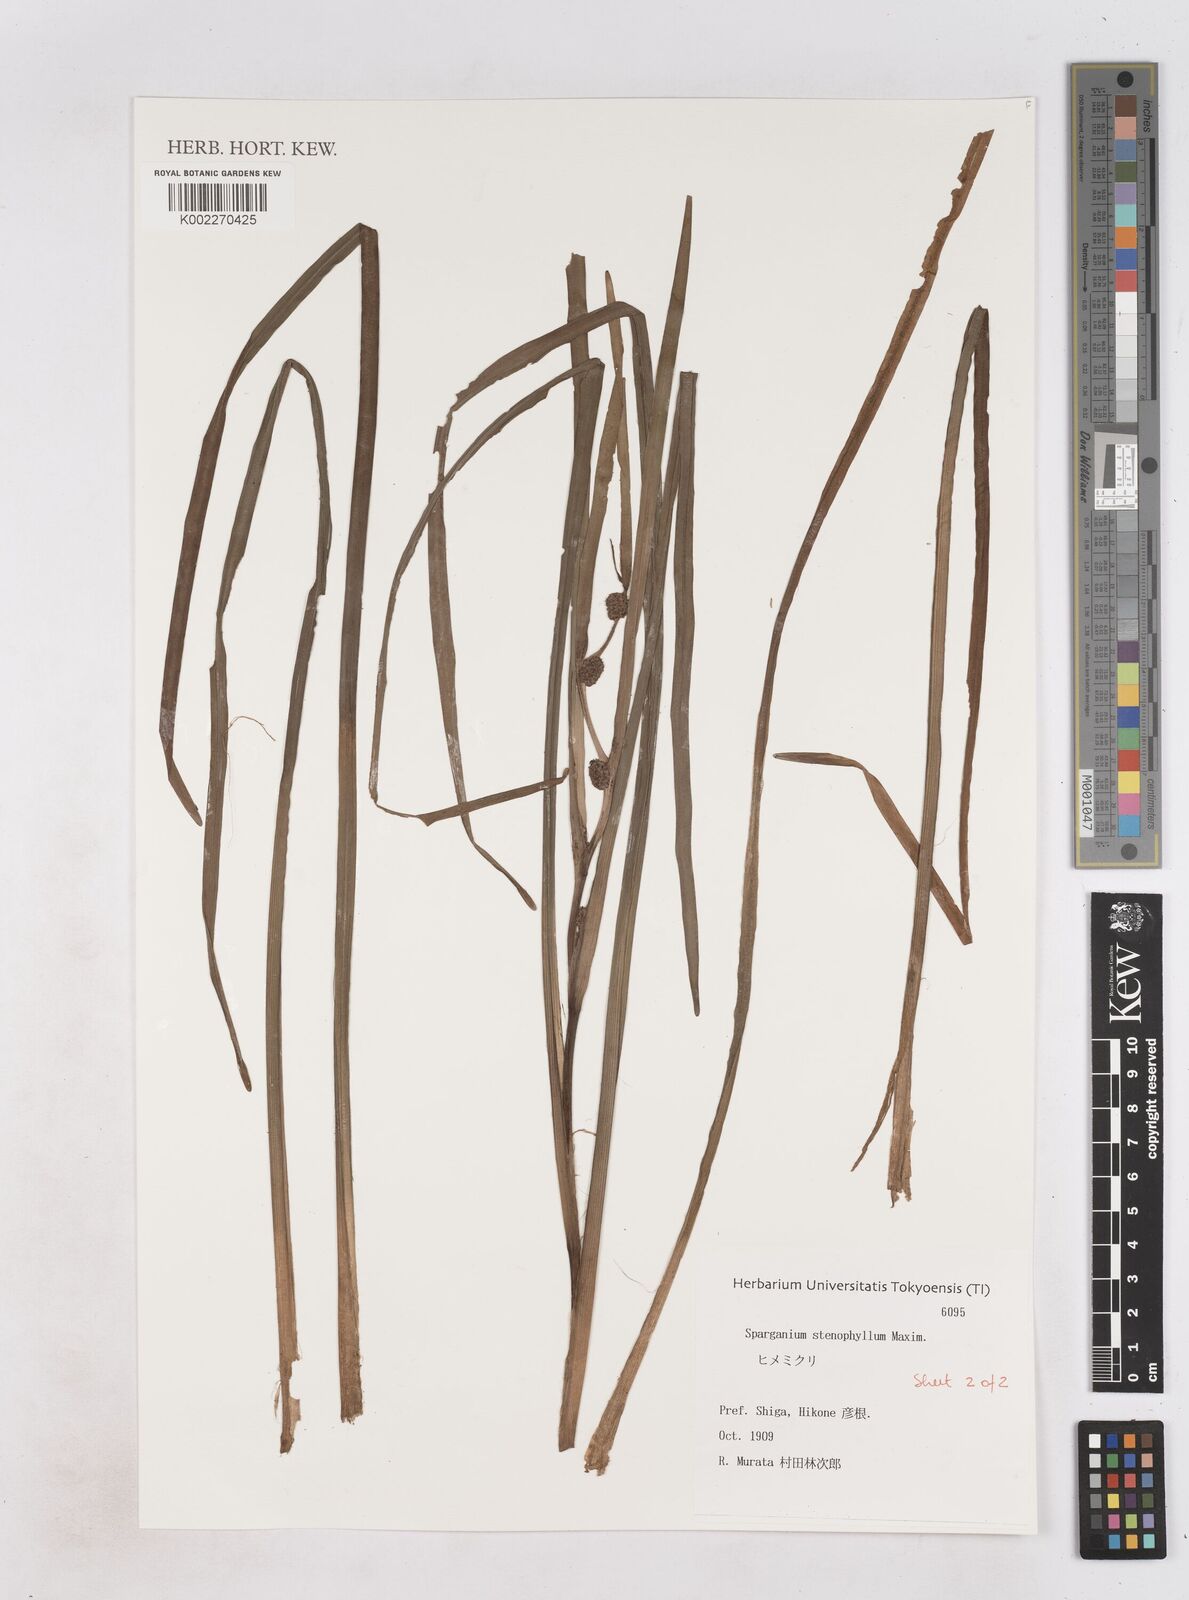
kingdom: Plantae
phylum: Tracheophyta
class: Liliopsida
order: Poales
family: Typhaceae
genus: Sparganium
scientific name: Sparganium subglobosum
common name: Burr­-reed
